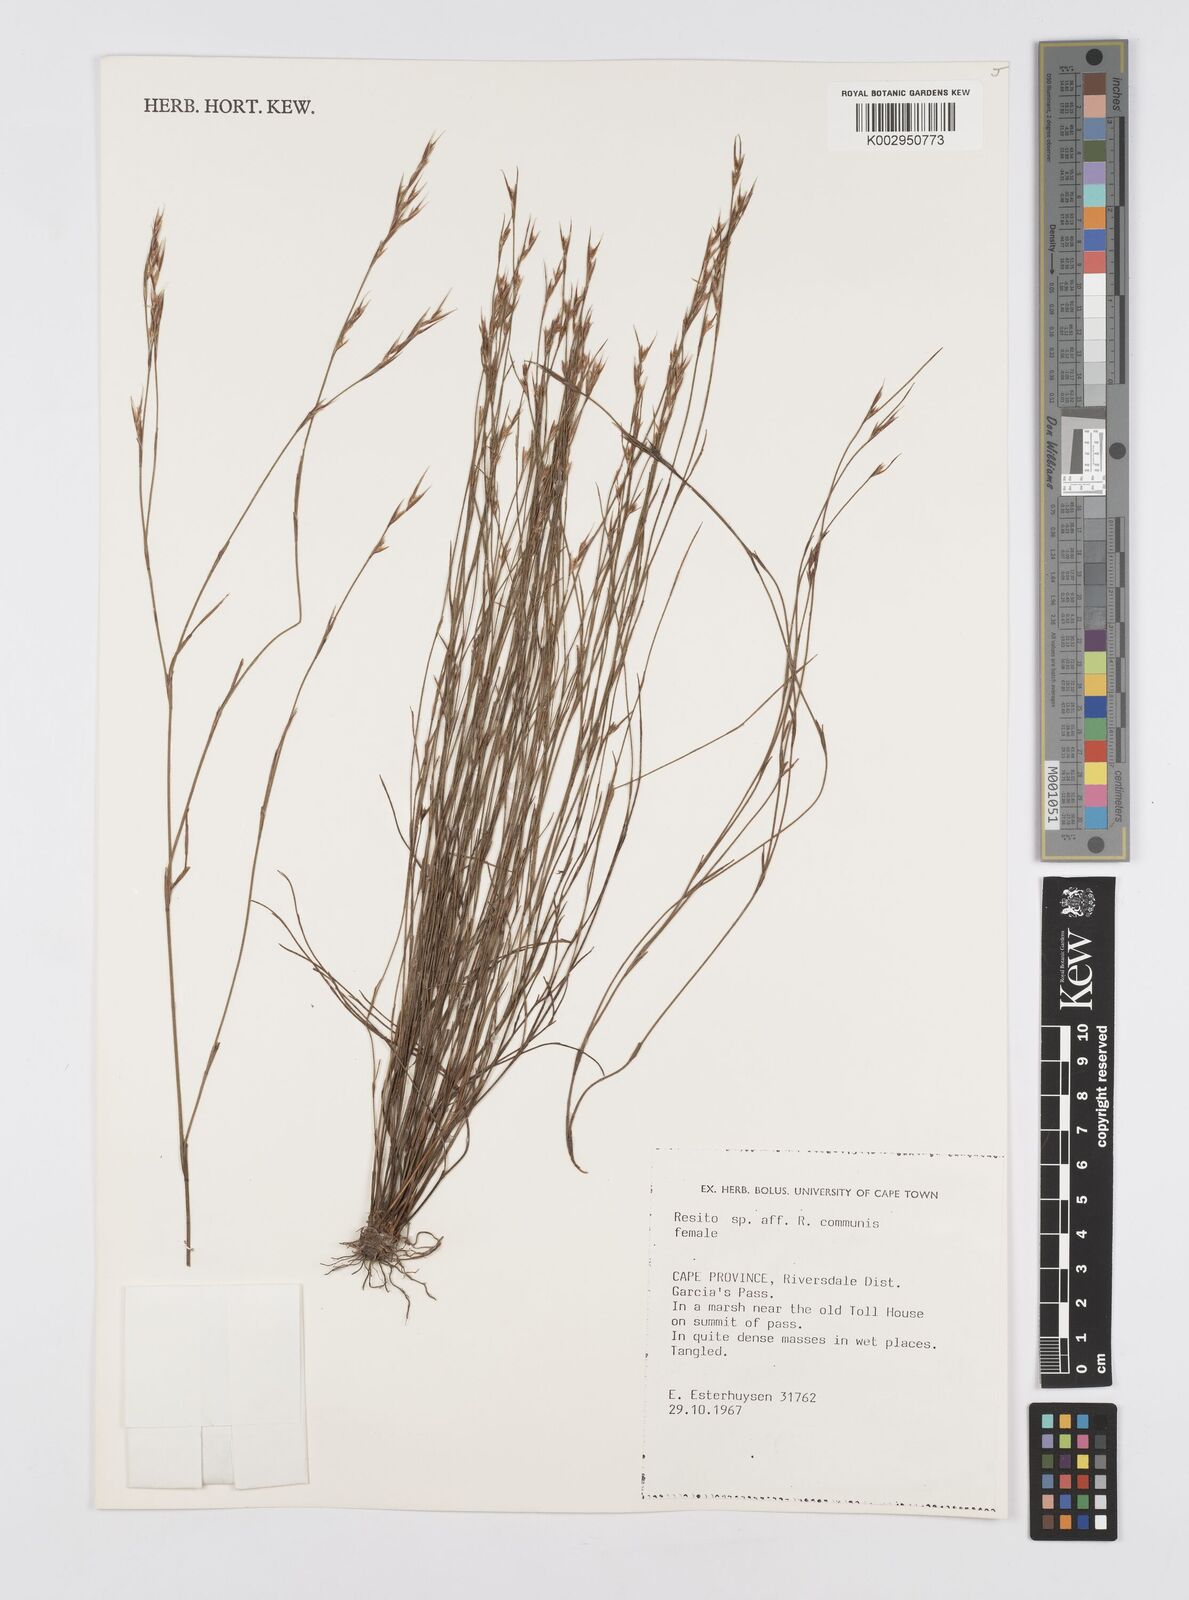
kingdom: Plantae
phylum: Tracheophyta
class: Liliopsida
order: Poales
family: Restionaceae
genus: Restio
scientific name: Restio communis
